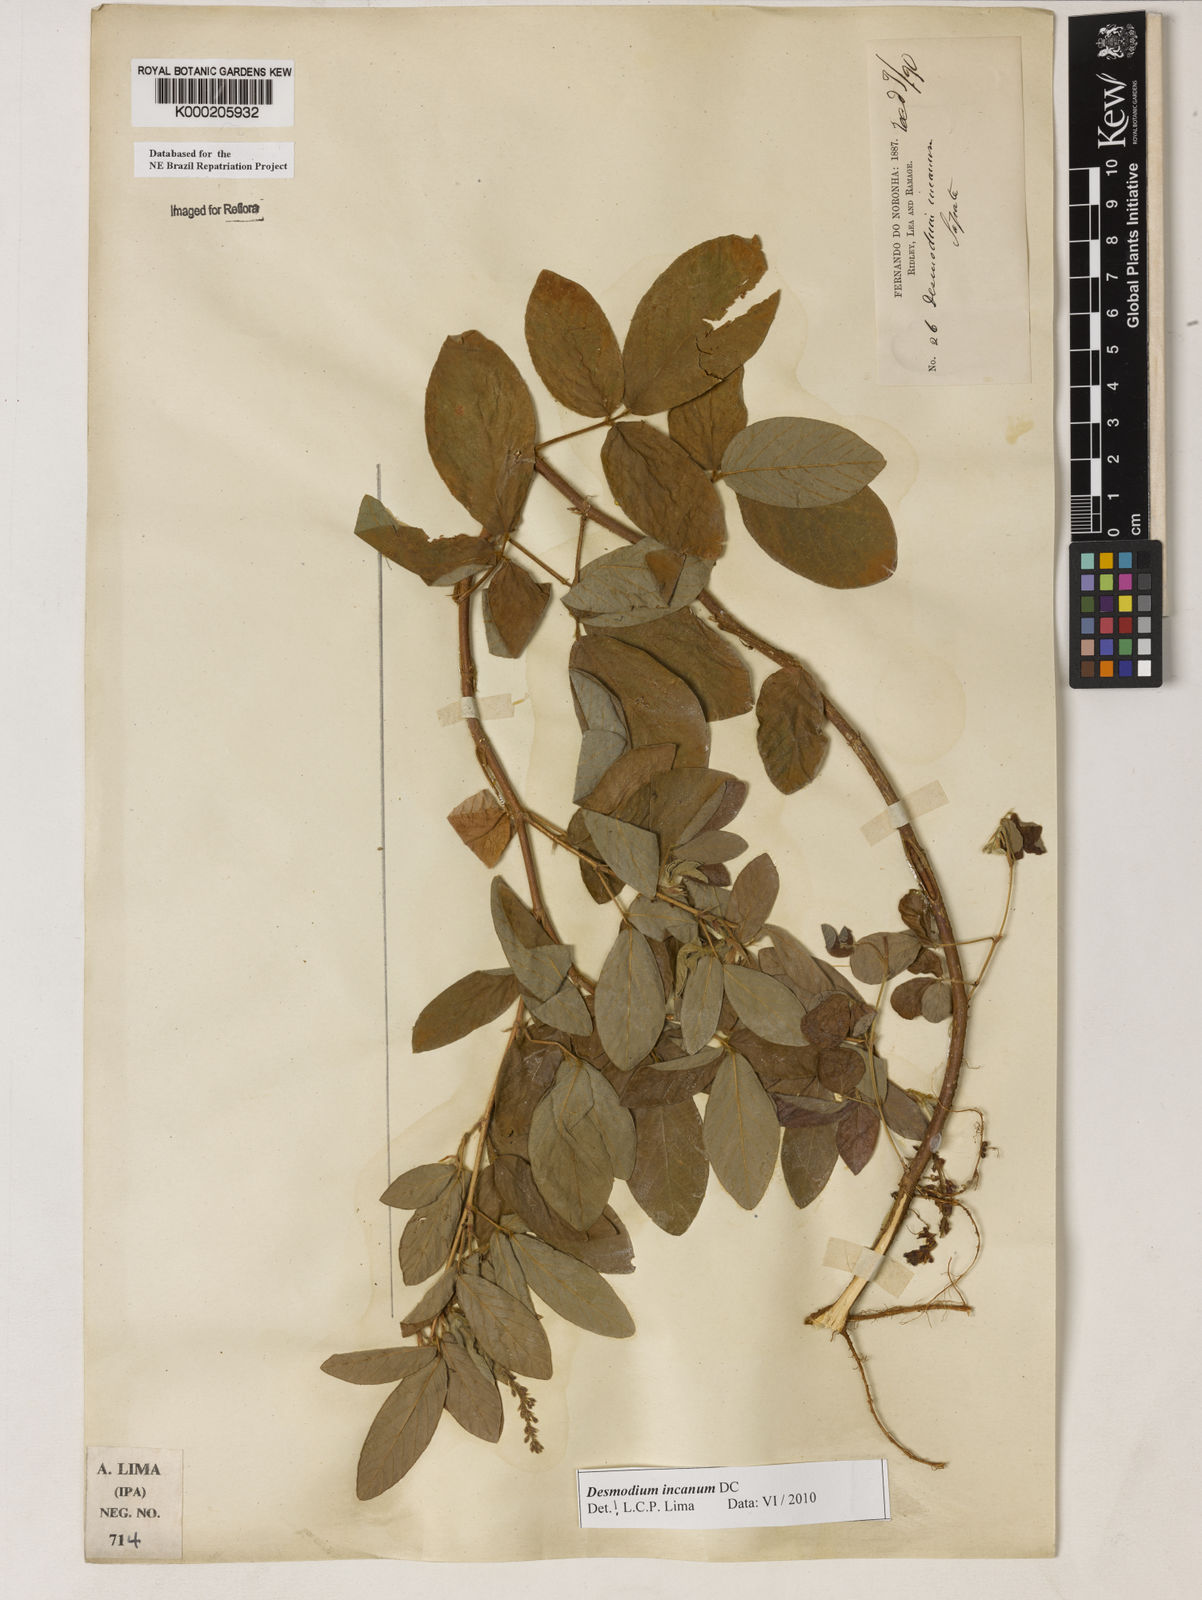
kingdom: Plantae
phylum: Tracheophyta
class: Magnoliopsida
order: Fabales
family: Fabaceae
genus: Desmodium
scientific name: Desmodium incanum
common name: Tickclover
